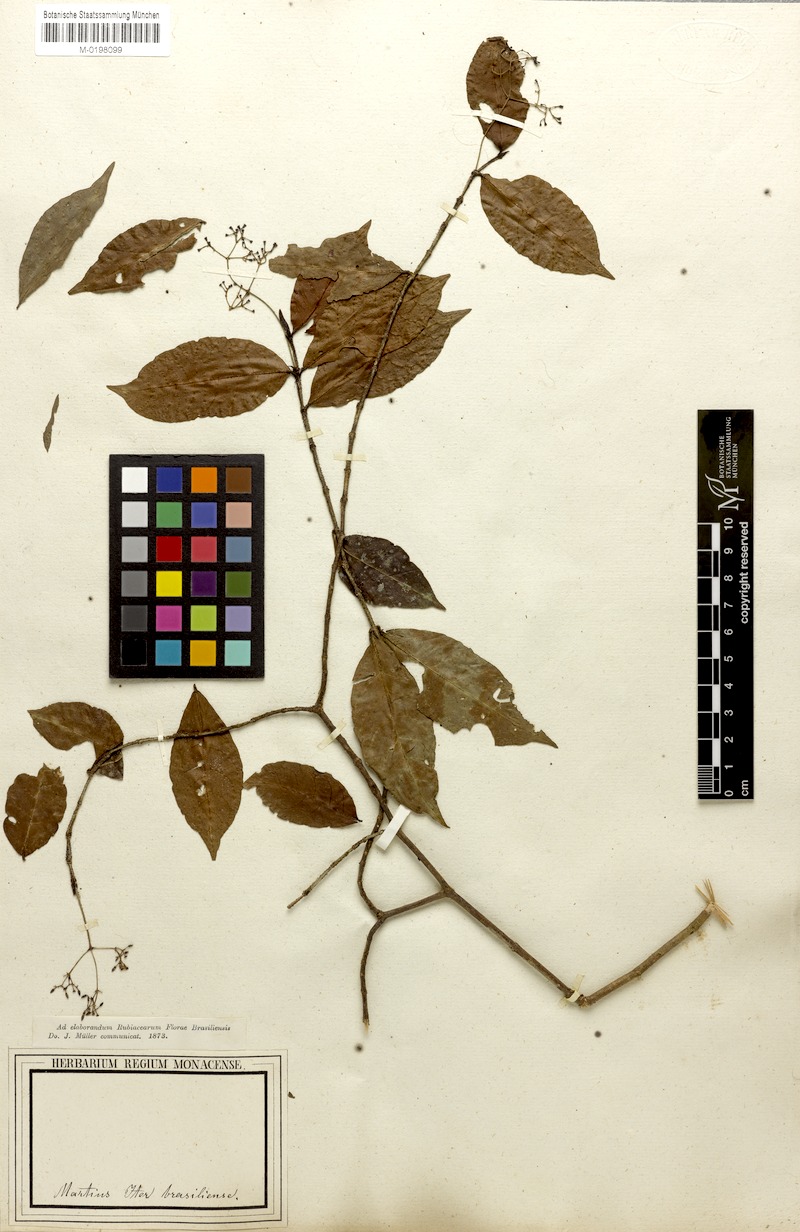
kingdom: Plantae
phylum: Tracheophyta
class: Magnoliopsida
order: Gentianales
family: Rubiaceae
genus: Psychotria
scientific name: Psychotria capillacea
